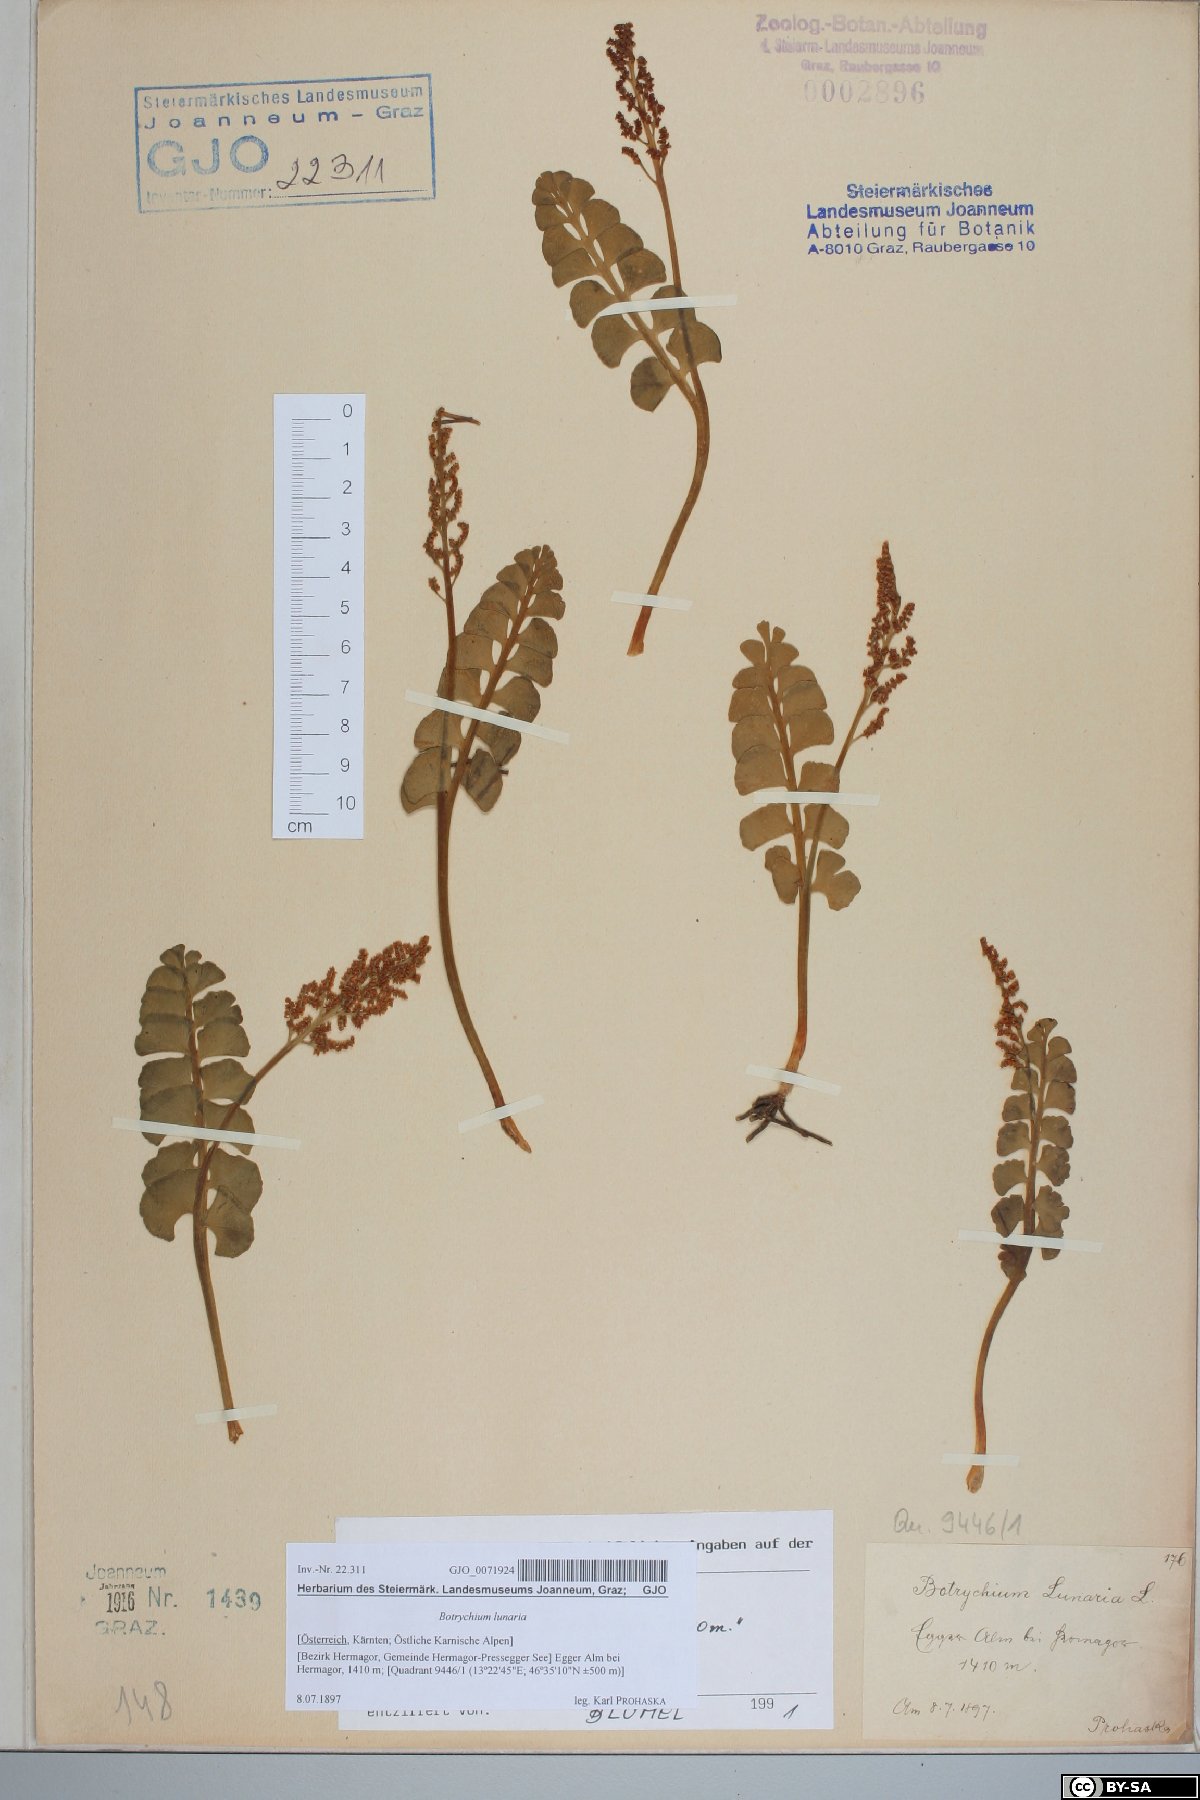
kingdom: Plantae
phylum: Tracheophyta
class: Polypodiopsida
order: Ophioglossales
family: Ophioglossaceae
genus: Botrychium
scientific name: Botrychium lunaria
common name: Moonwort
